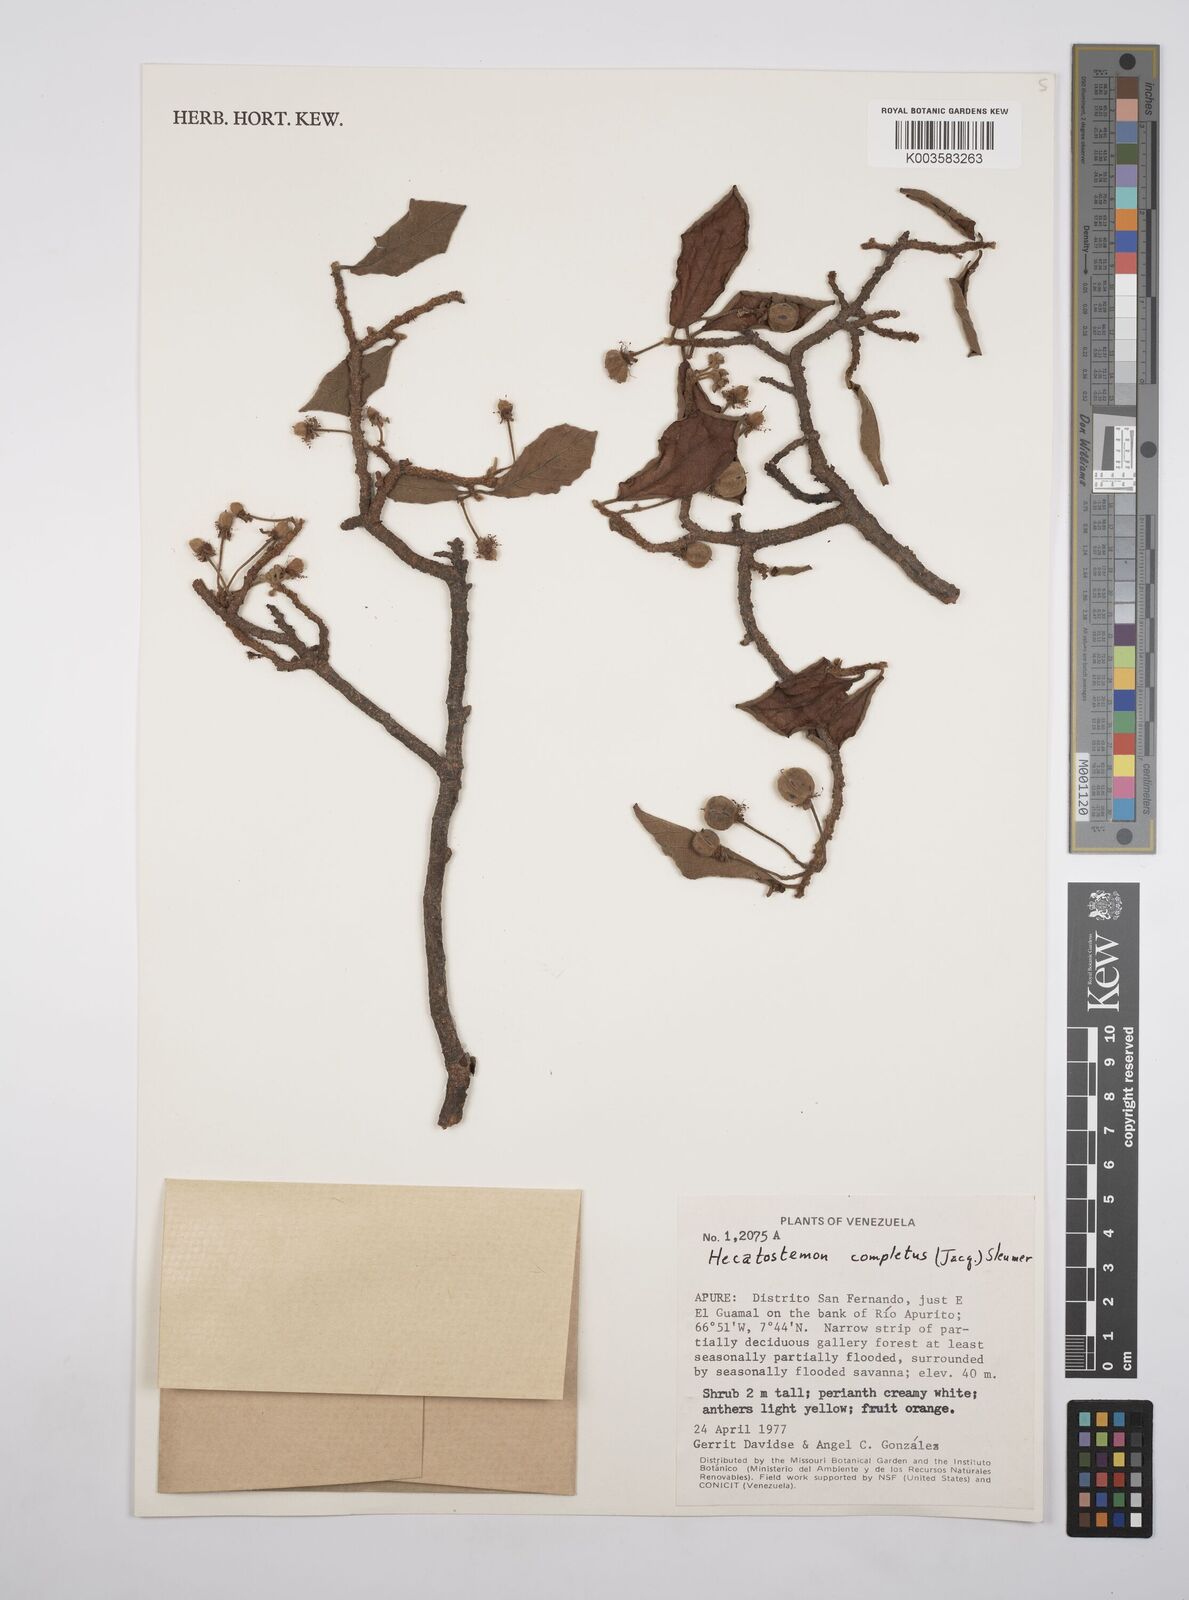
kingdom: Plantae
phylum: Tracheophyta
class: Magnoliopsida
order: Malpighiales
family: Salicaceae
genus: Casearia
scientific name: Casearia completa
